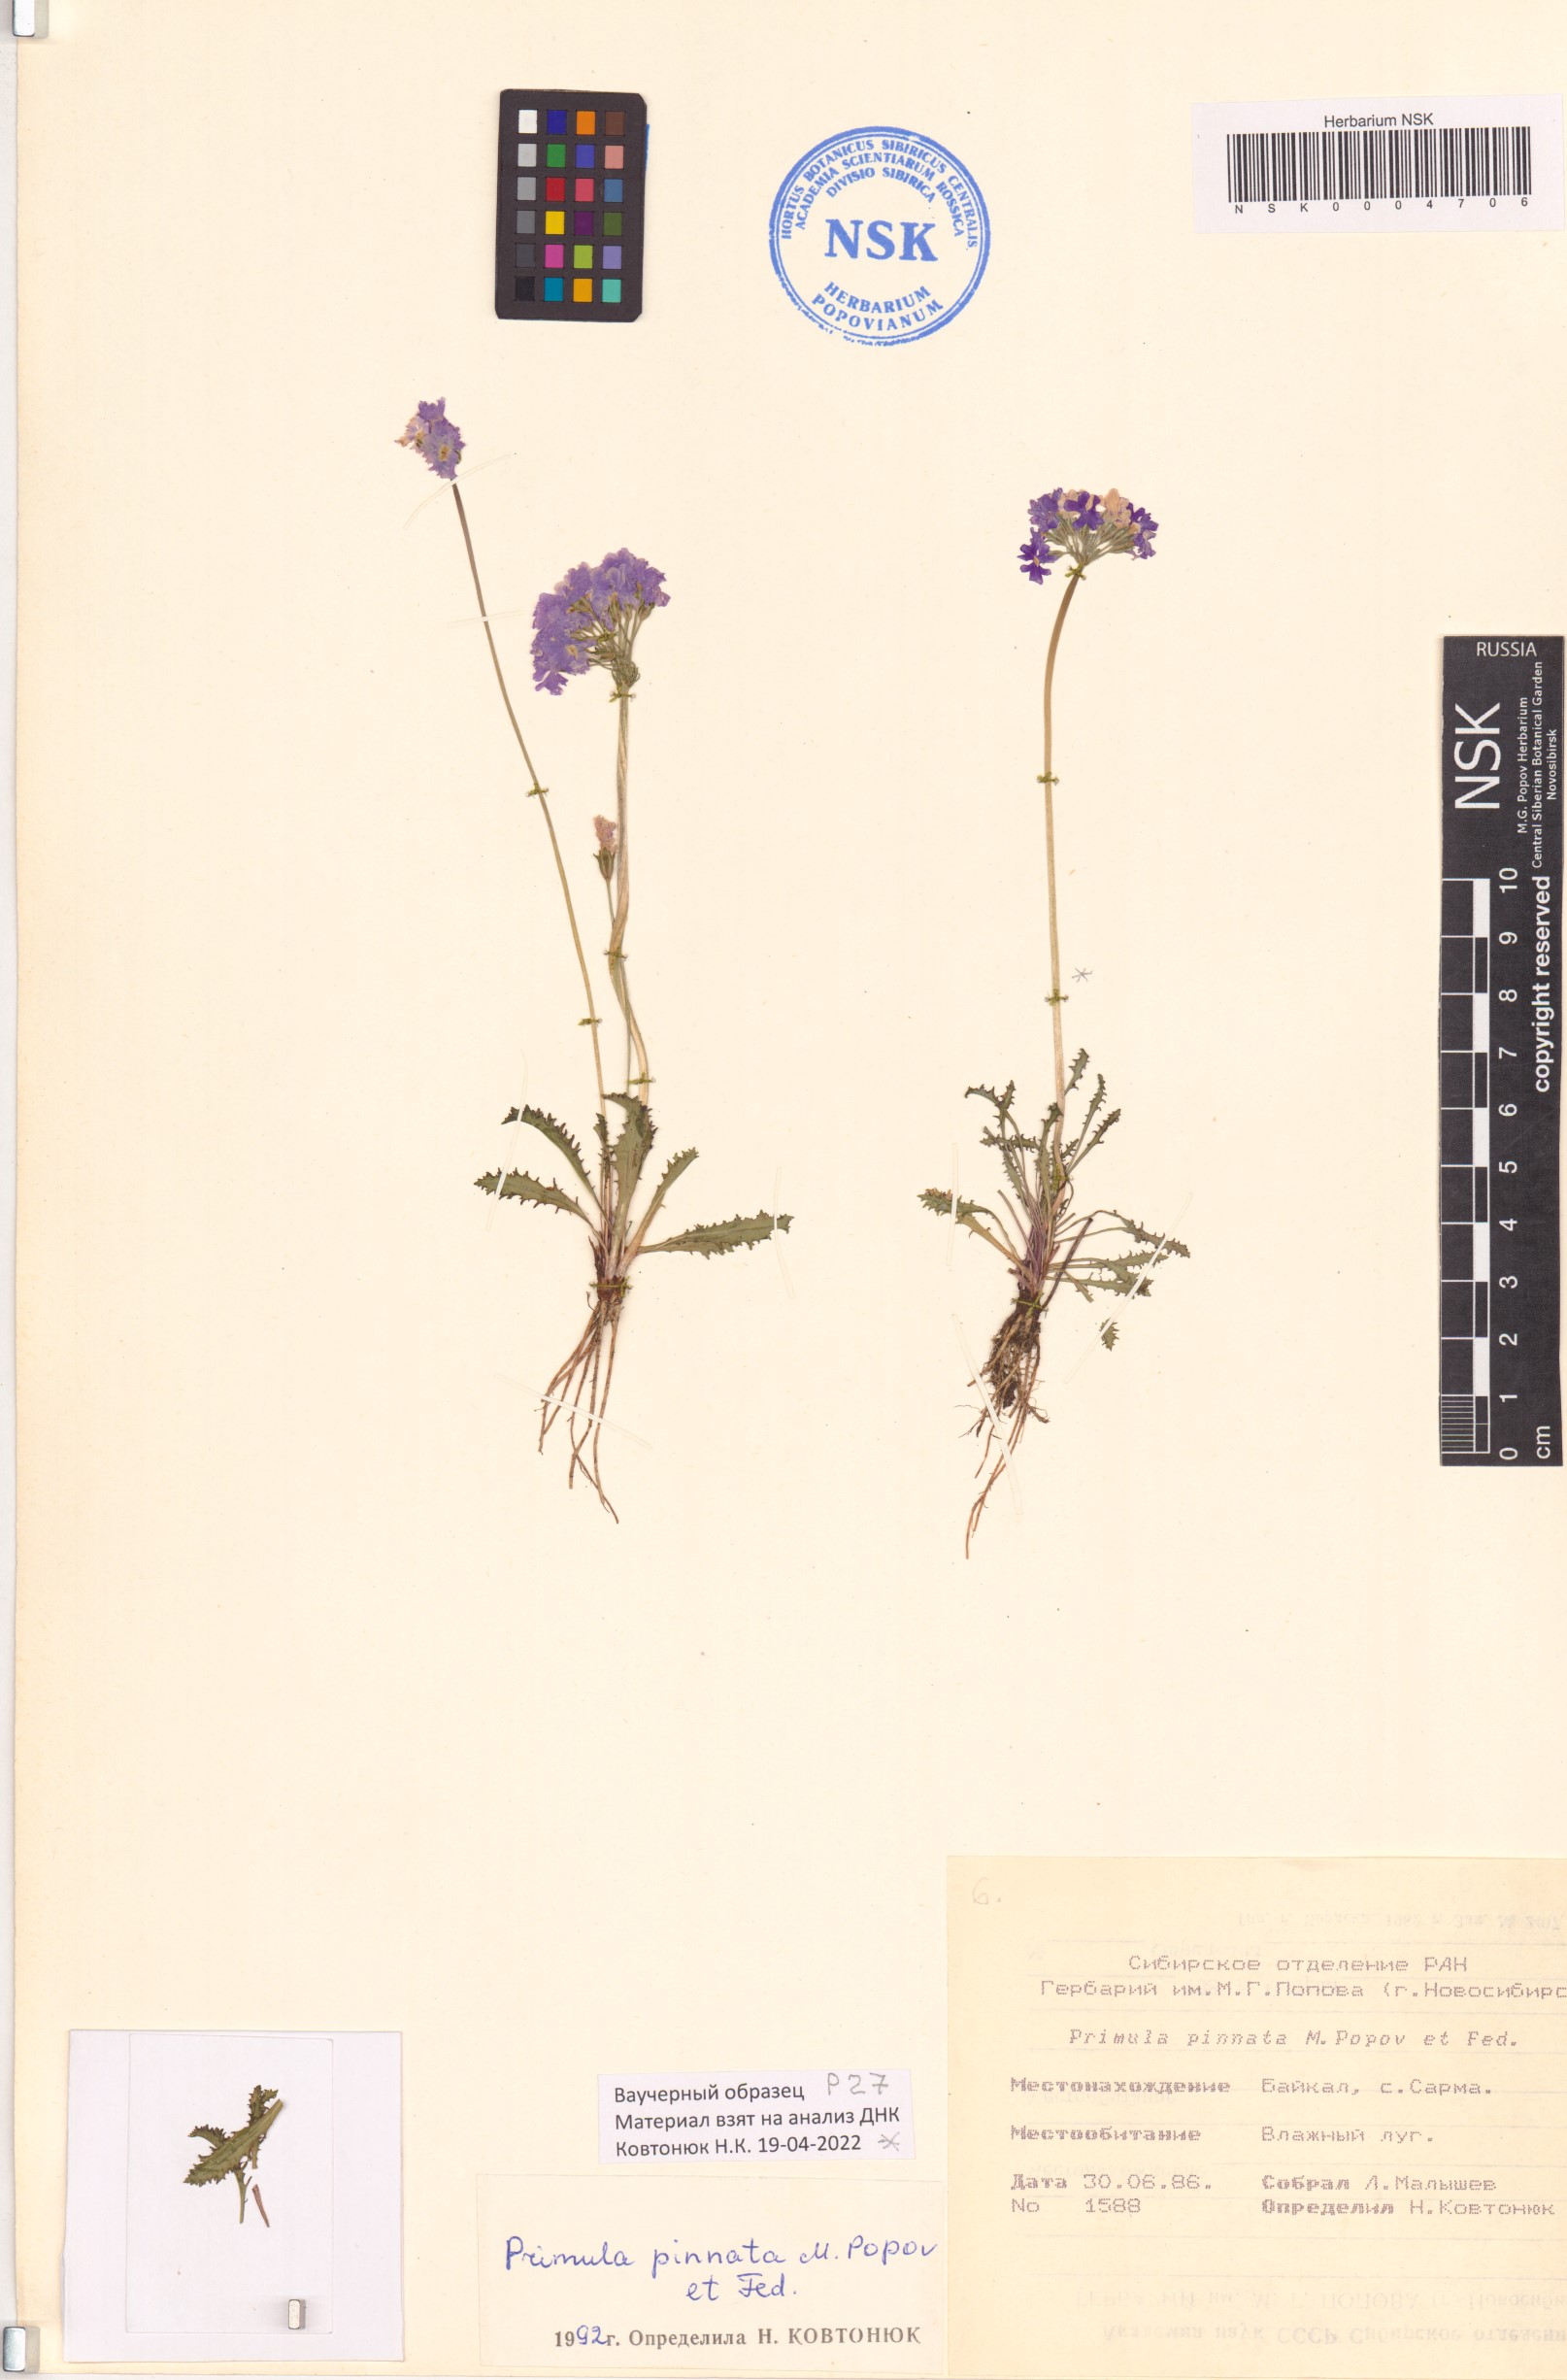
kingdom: Plantae
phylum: Tracheophyta
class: Magnoliopsida
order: Ericales
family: Primulaceae
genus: Primula
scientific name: Primula pinnata
